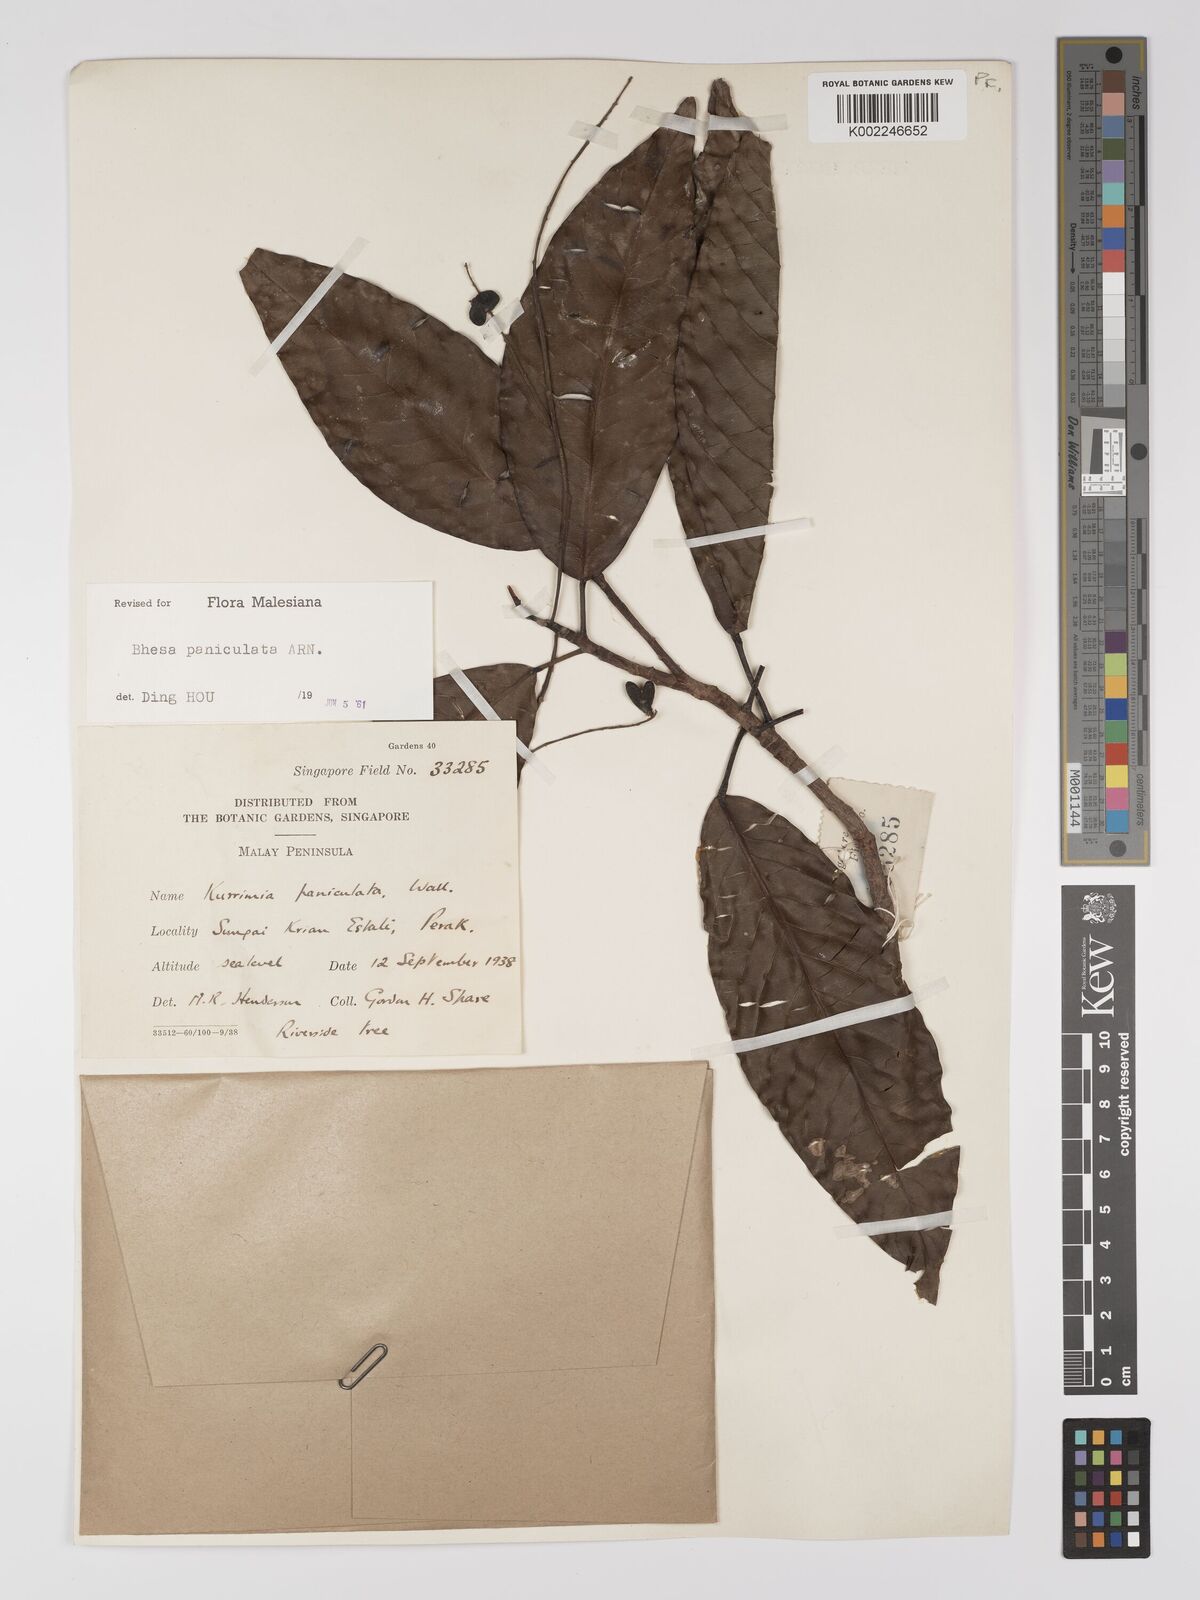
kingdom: Plantae
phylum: Tracheophyta
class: Magnoliopsida
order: Malpighiales
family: Centroplacaceae
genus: Bhesa
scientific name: Bhesa paniculata
